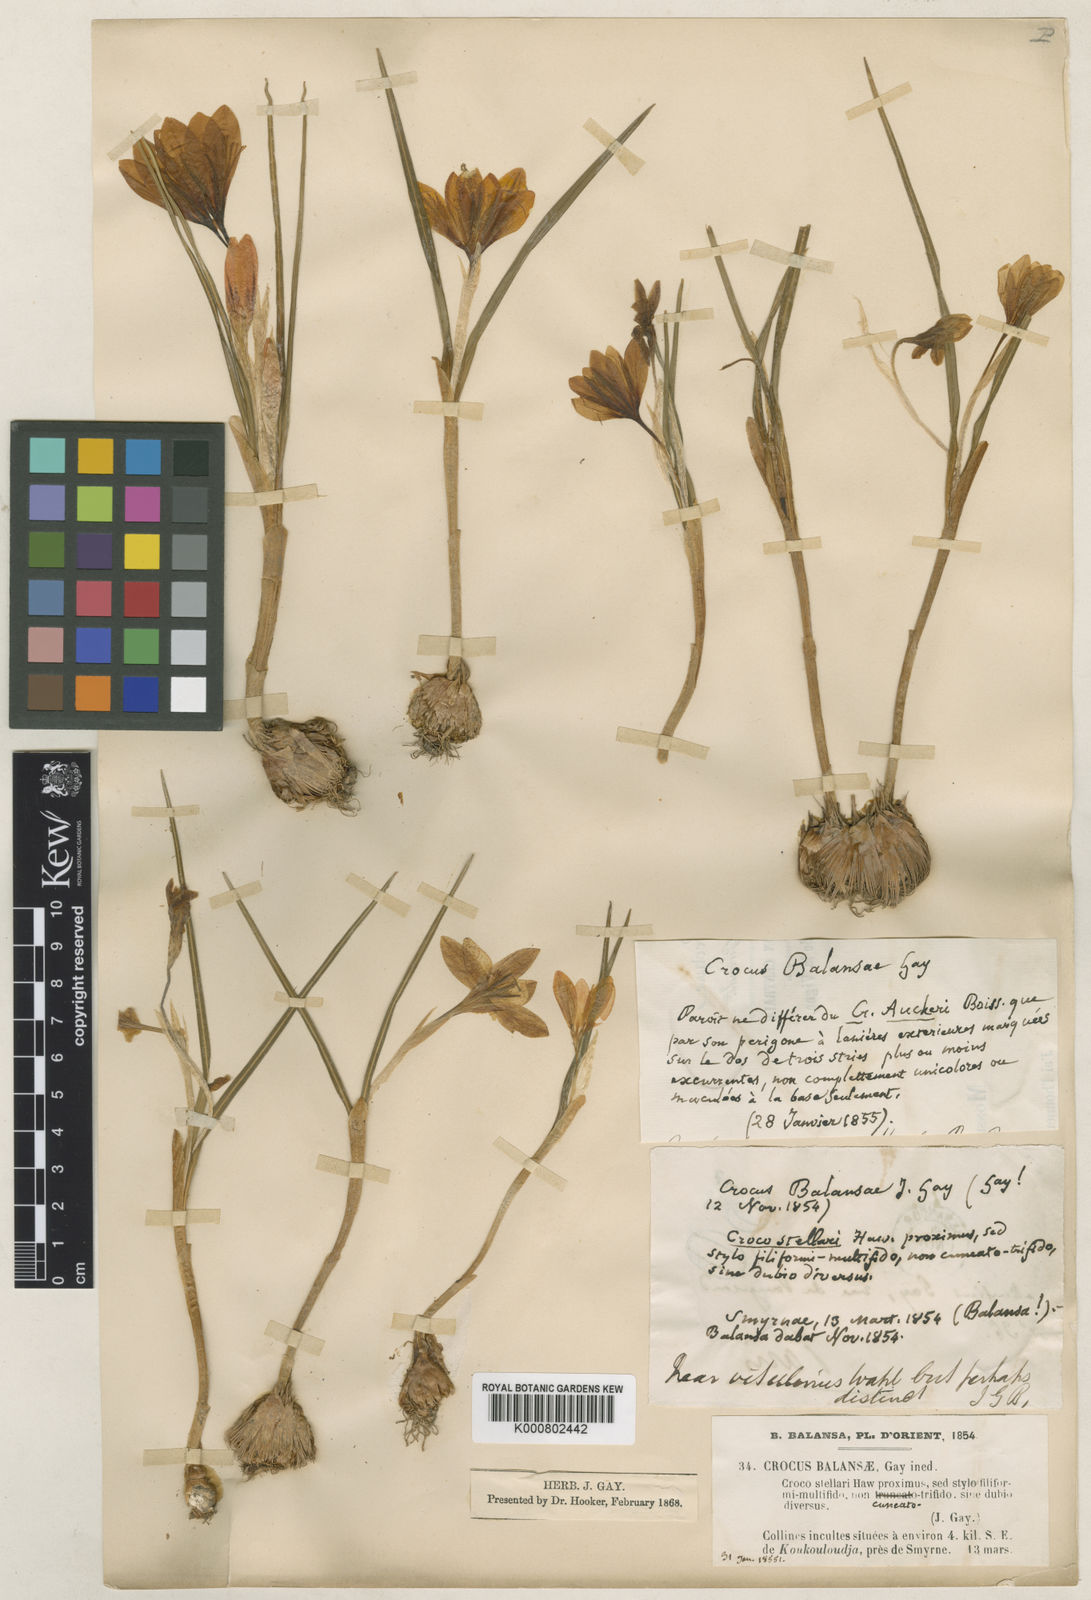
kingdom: Plantae
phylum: Tracheophyta
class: Liliopsida
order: Asparagales
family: Iridaceae
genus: Crocus
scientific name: Crocus balansae
